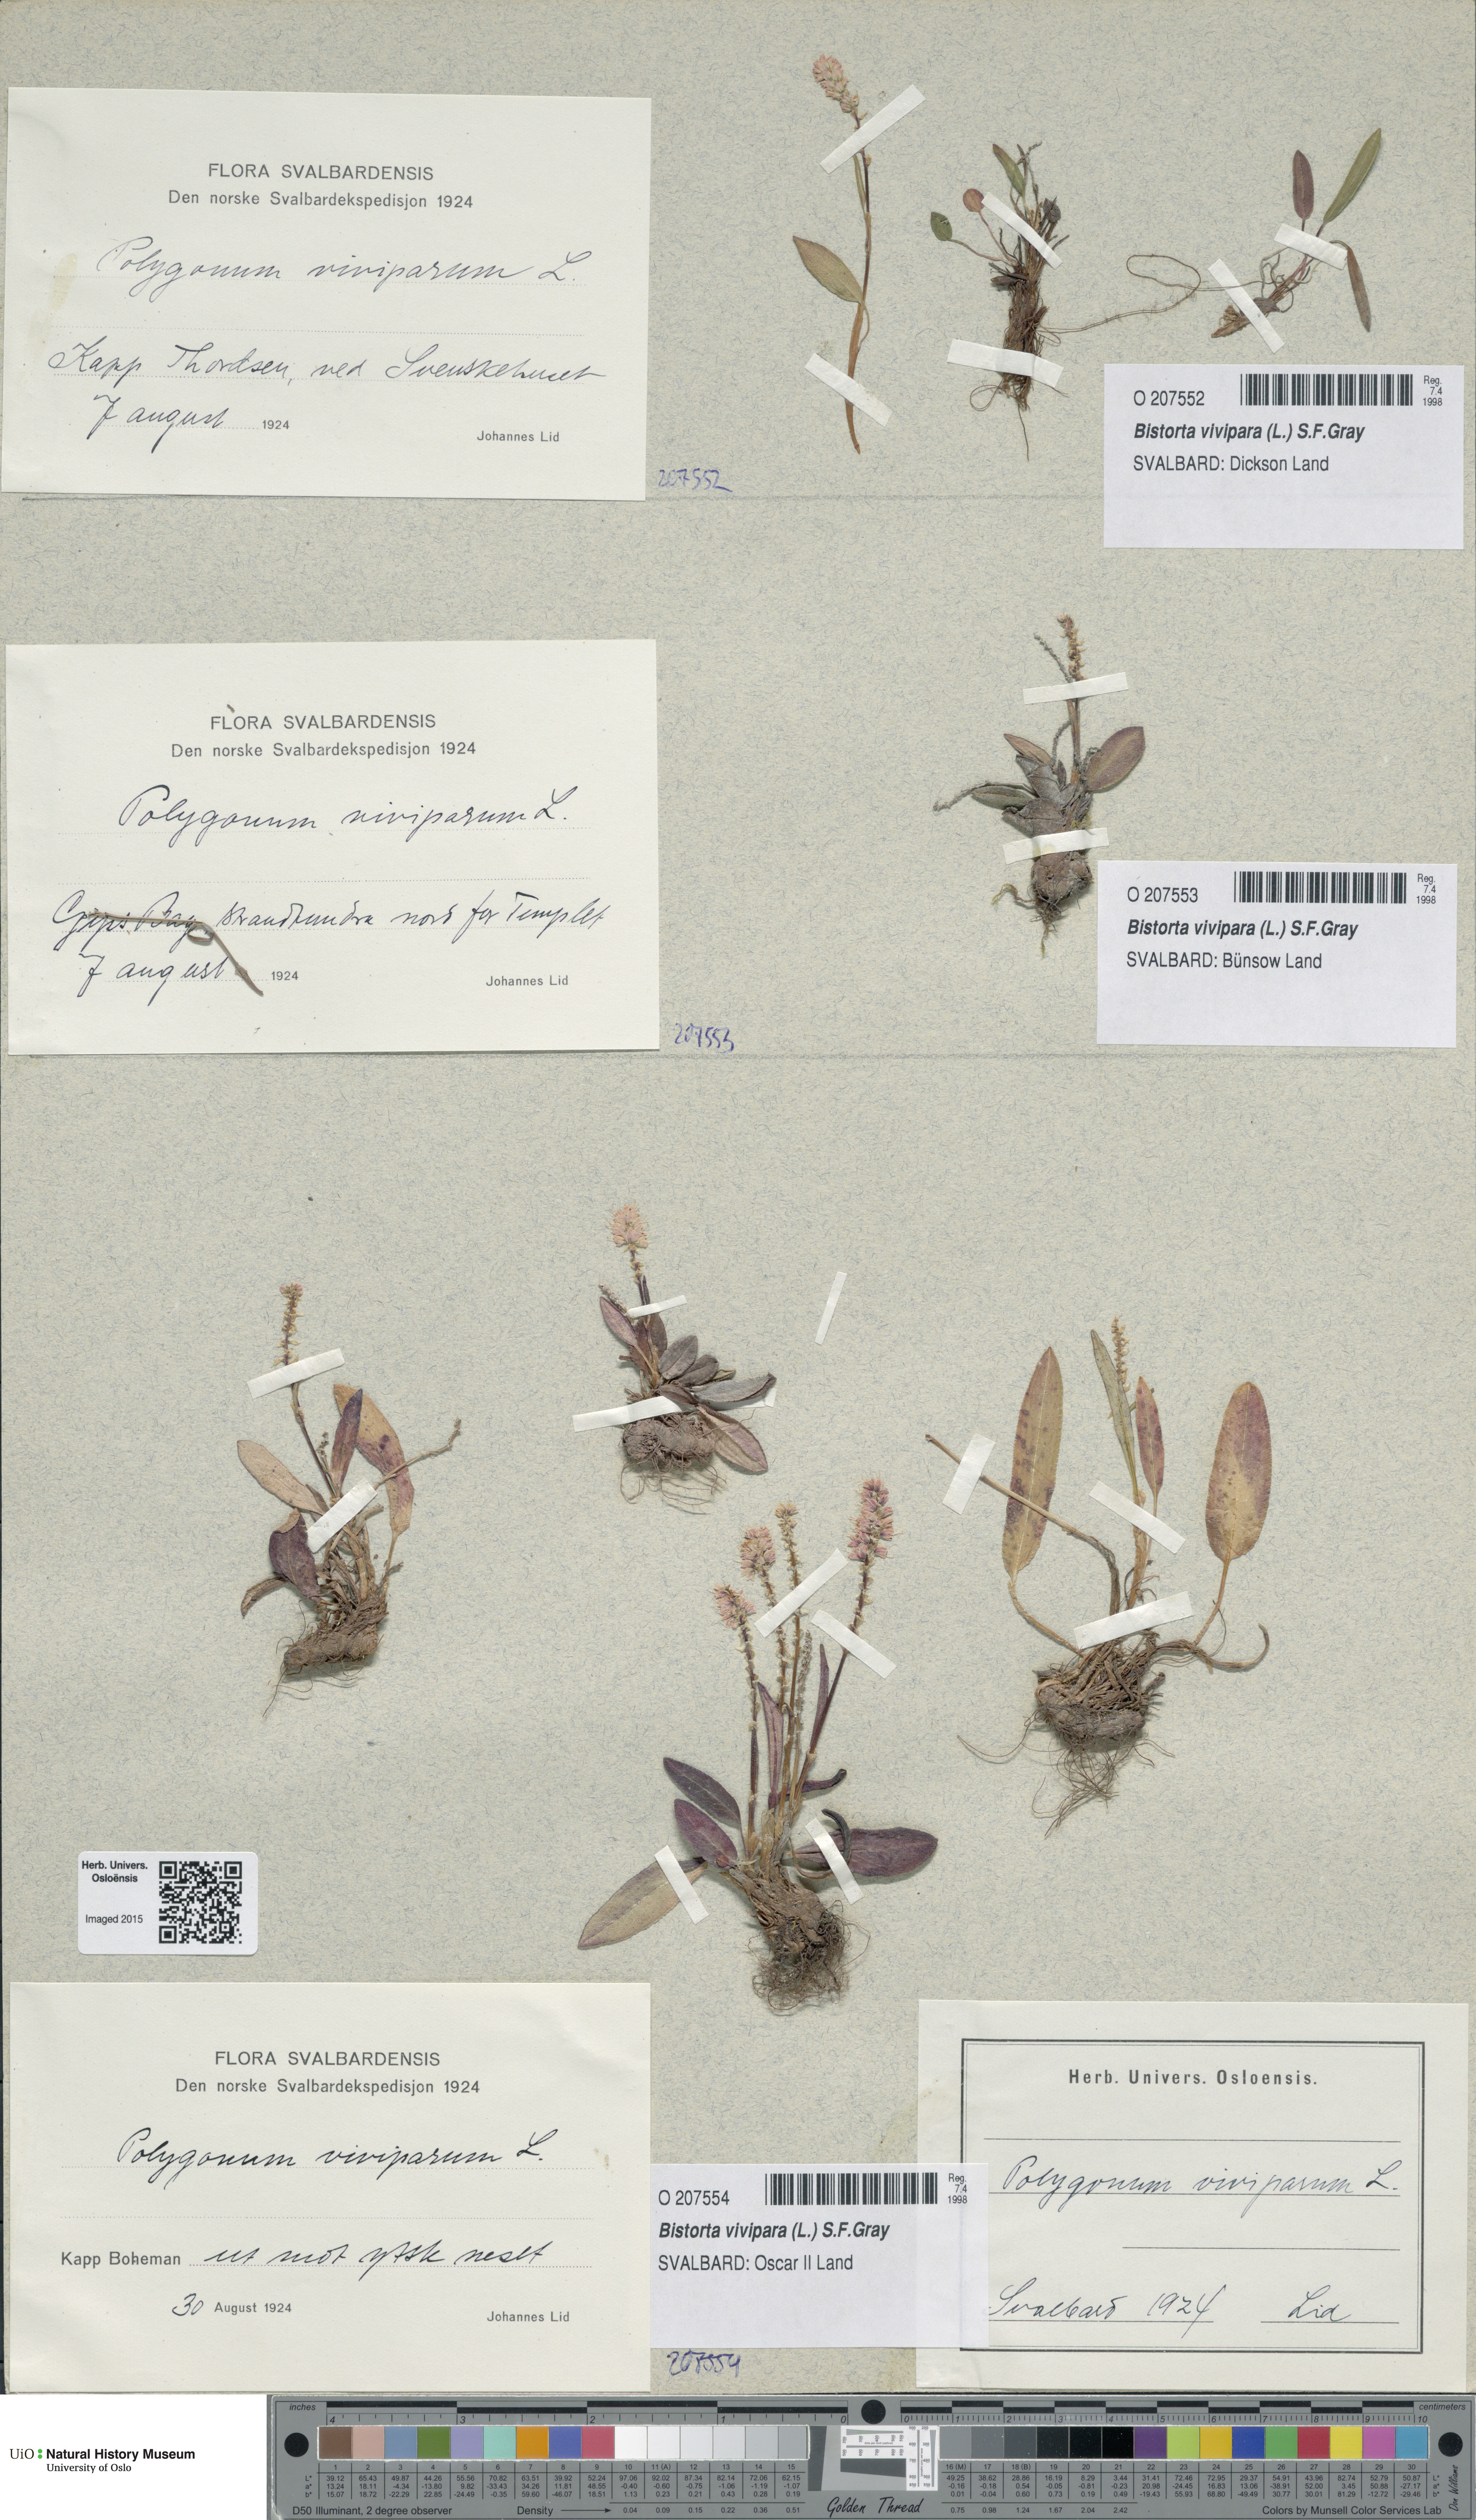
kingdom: Plantae
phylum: Tracheophyta
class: Magnoliopsida
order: Caryophyllales
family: Polygonaceae
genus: Bistorta
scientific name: Bistorta vivipara
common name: Alpine bistort
